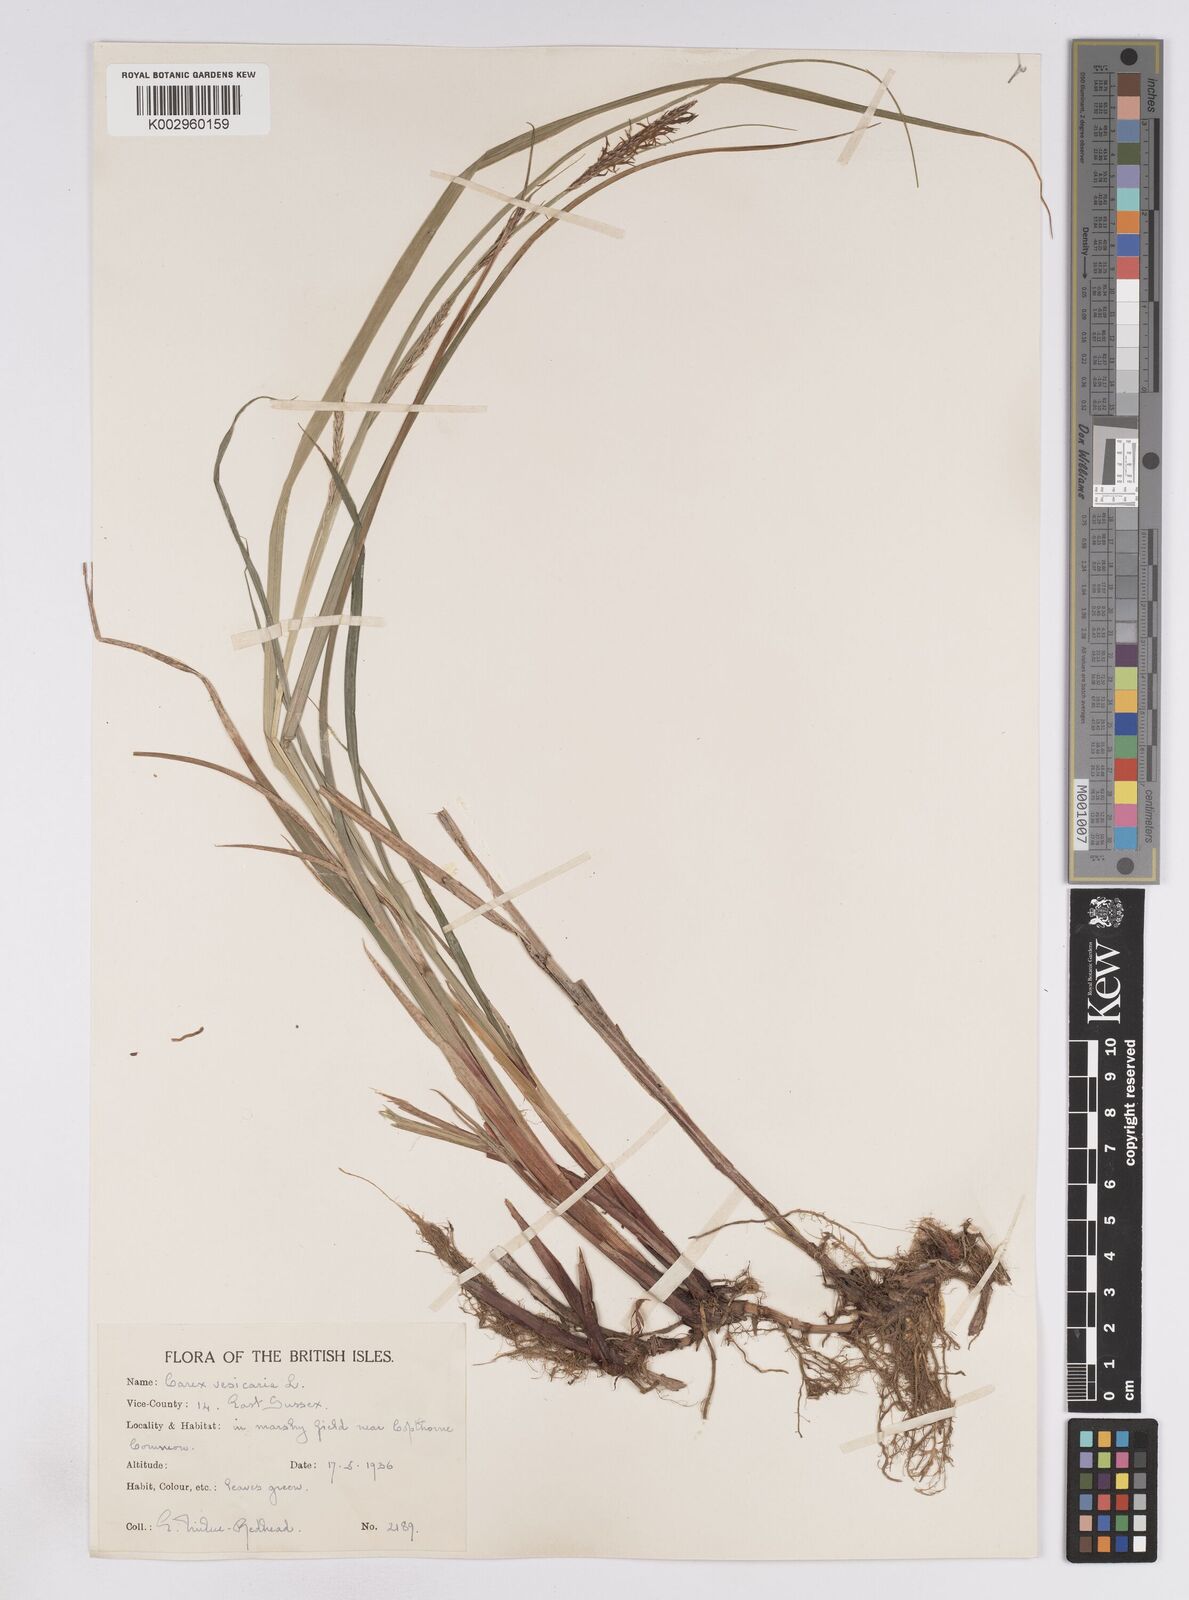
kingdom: Plantae
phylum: Tracheophyta
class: Liliopsida
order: Poales
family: Cyperaceae
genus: Carex
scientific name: Carex vesicaria
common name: Bladder-sedge
